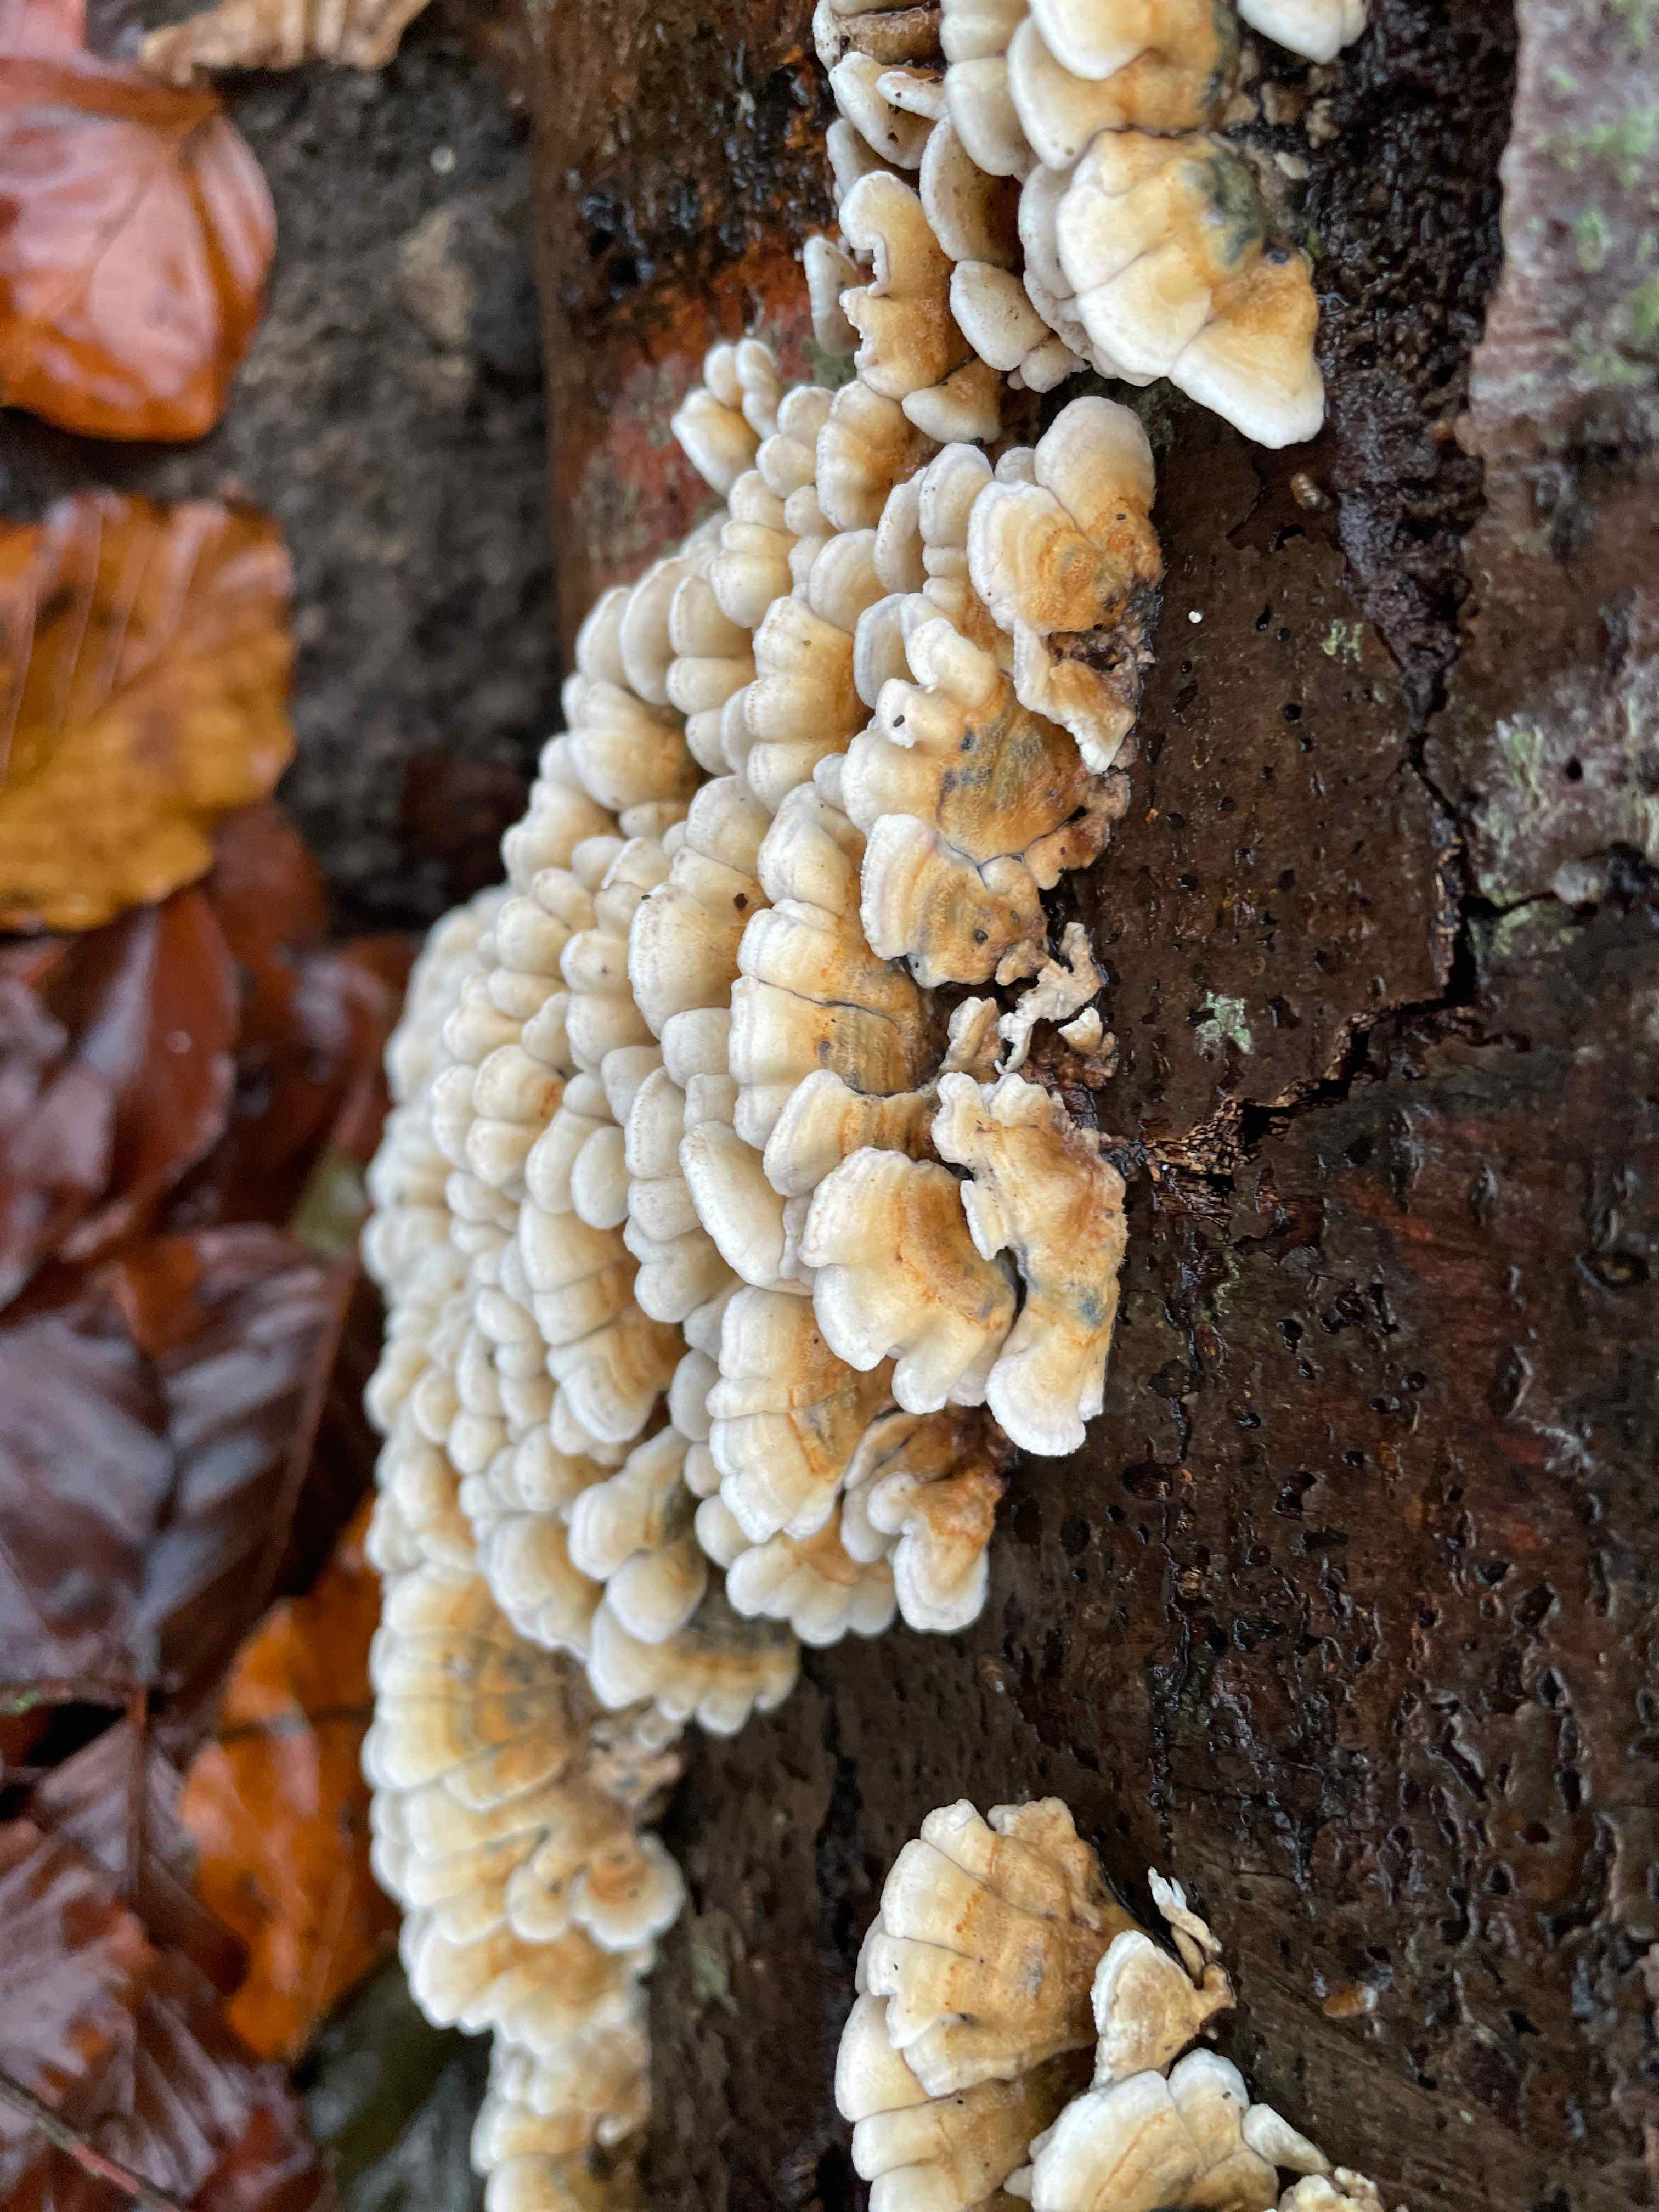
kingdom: Fungi
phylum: Basidiomycota
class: Agaricomycetes
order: Amylocorticiales
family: Amylocorticiaceae
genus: Plicaturopsis
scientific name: Plicaturopsis crispa
